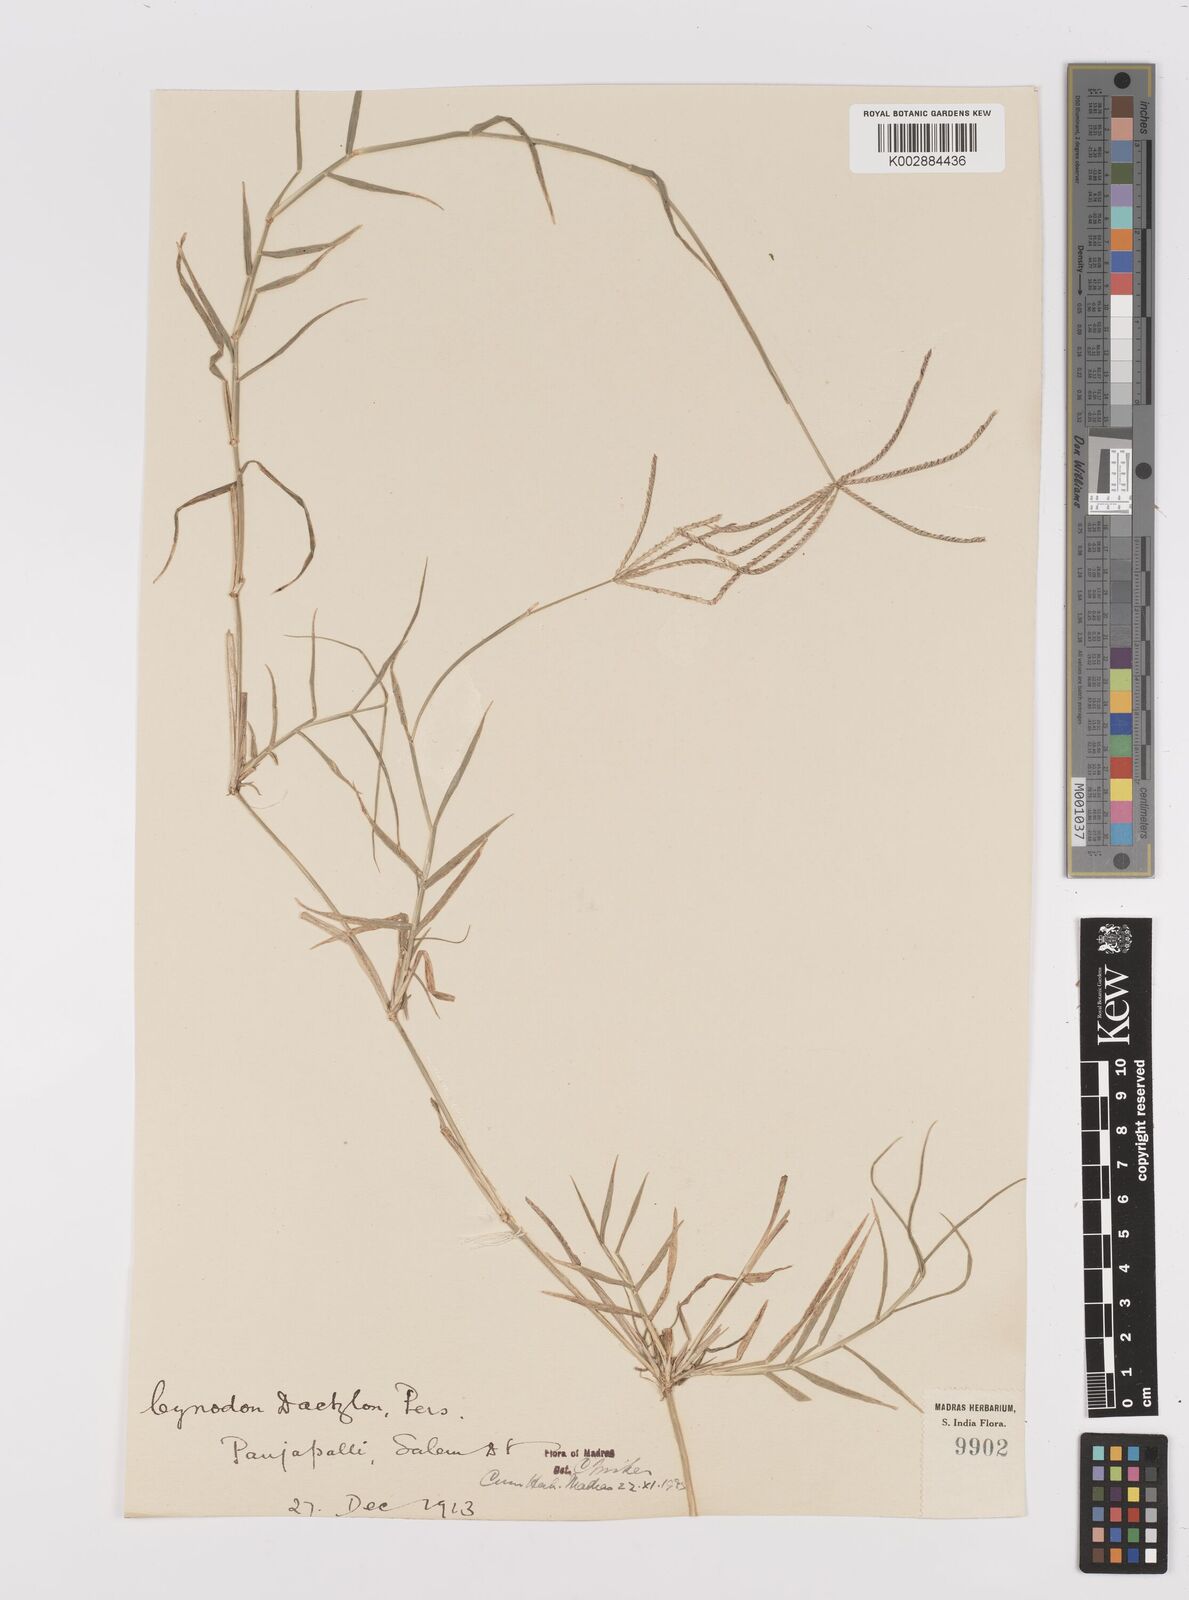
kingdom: Plantae
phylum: Tracheophyta
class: Liliopsida
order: Poales
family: Poaceae
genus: Cynodon
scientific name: Cynodon dactylon
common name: Bermuda grass
